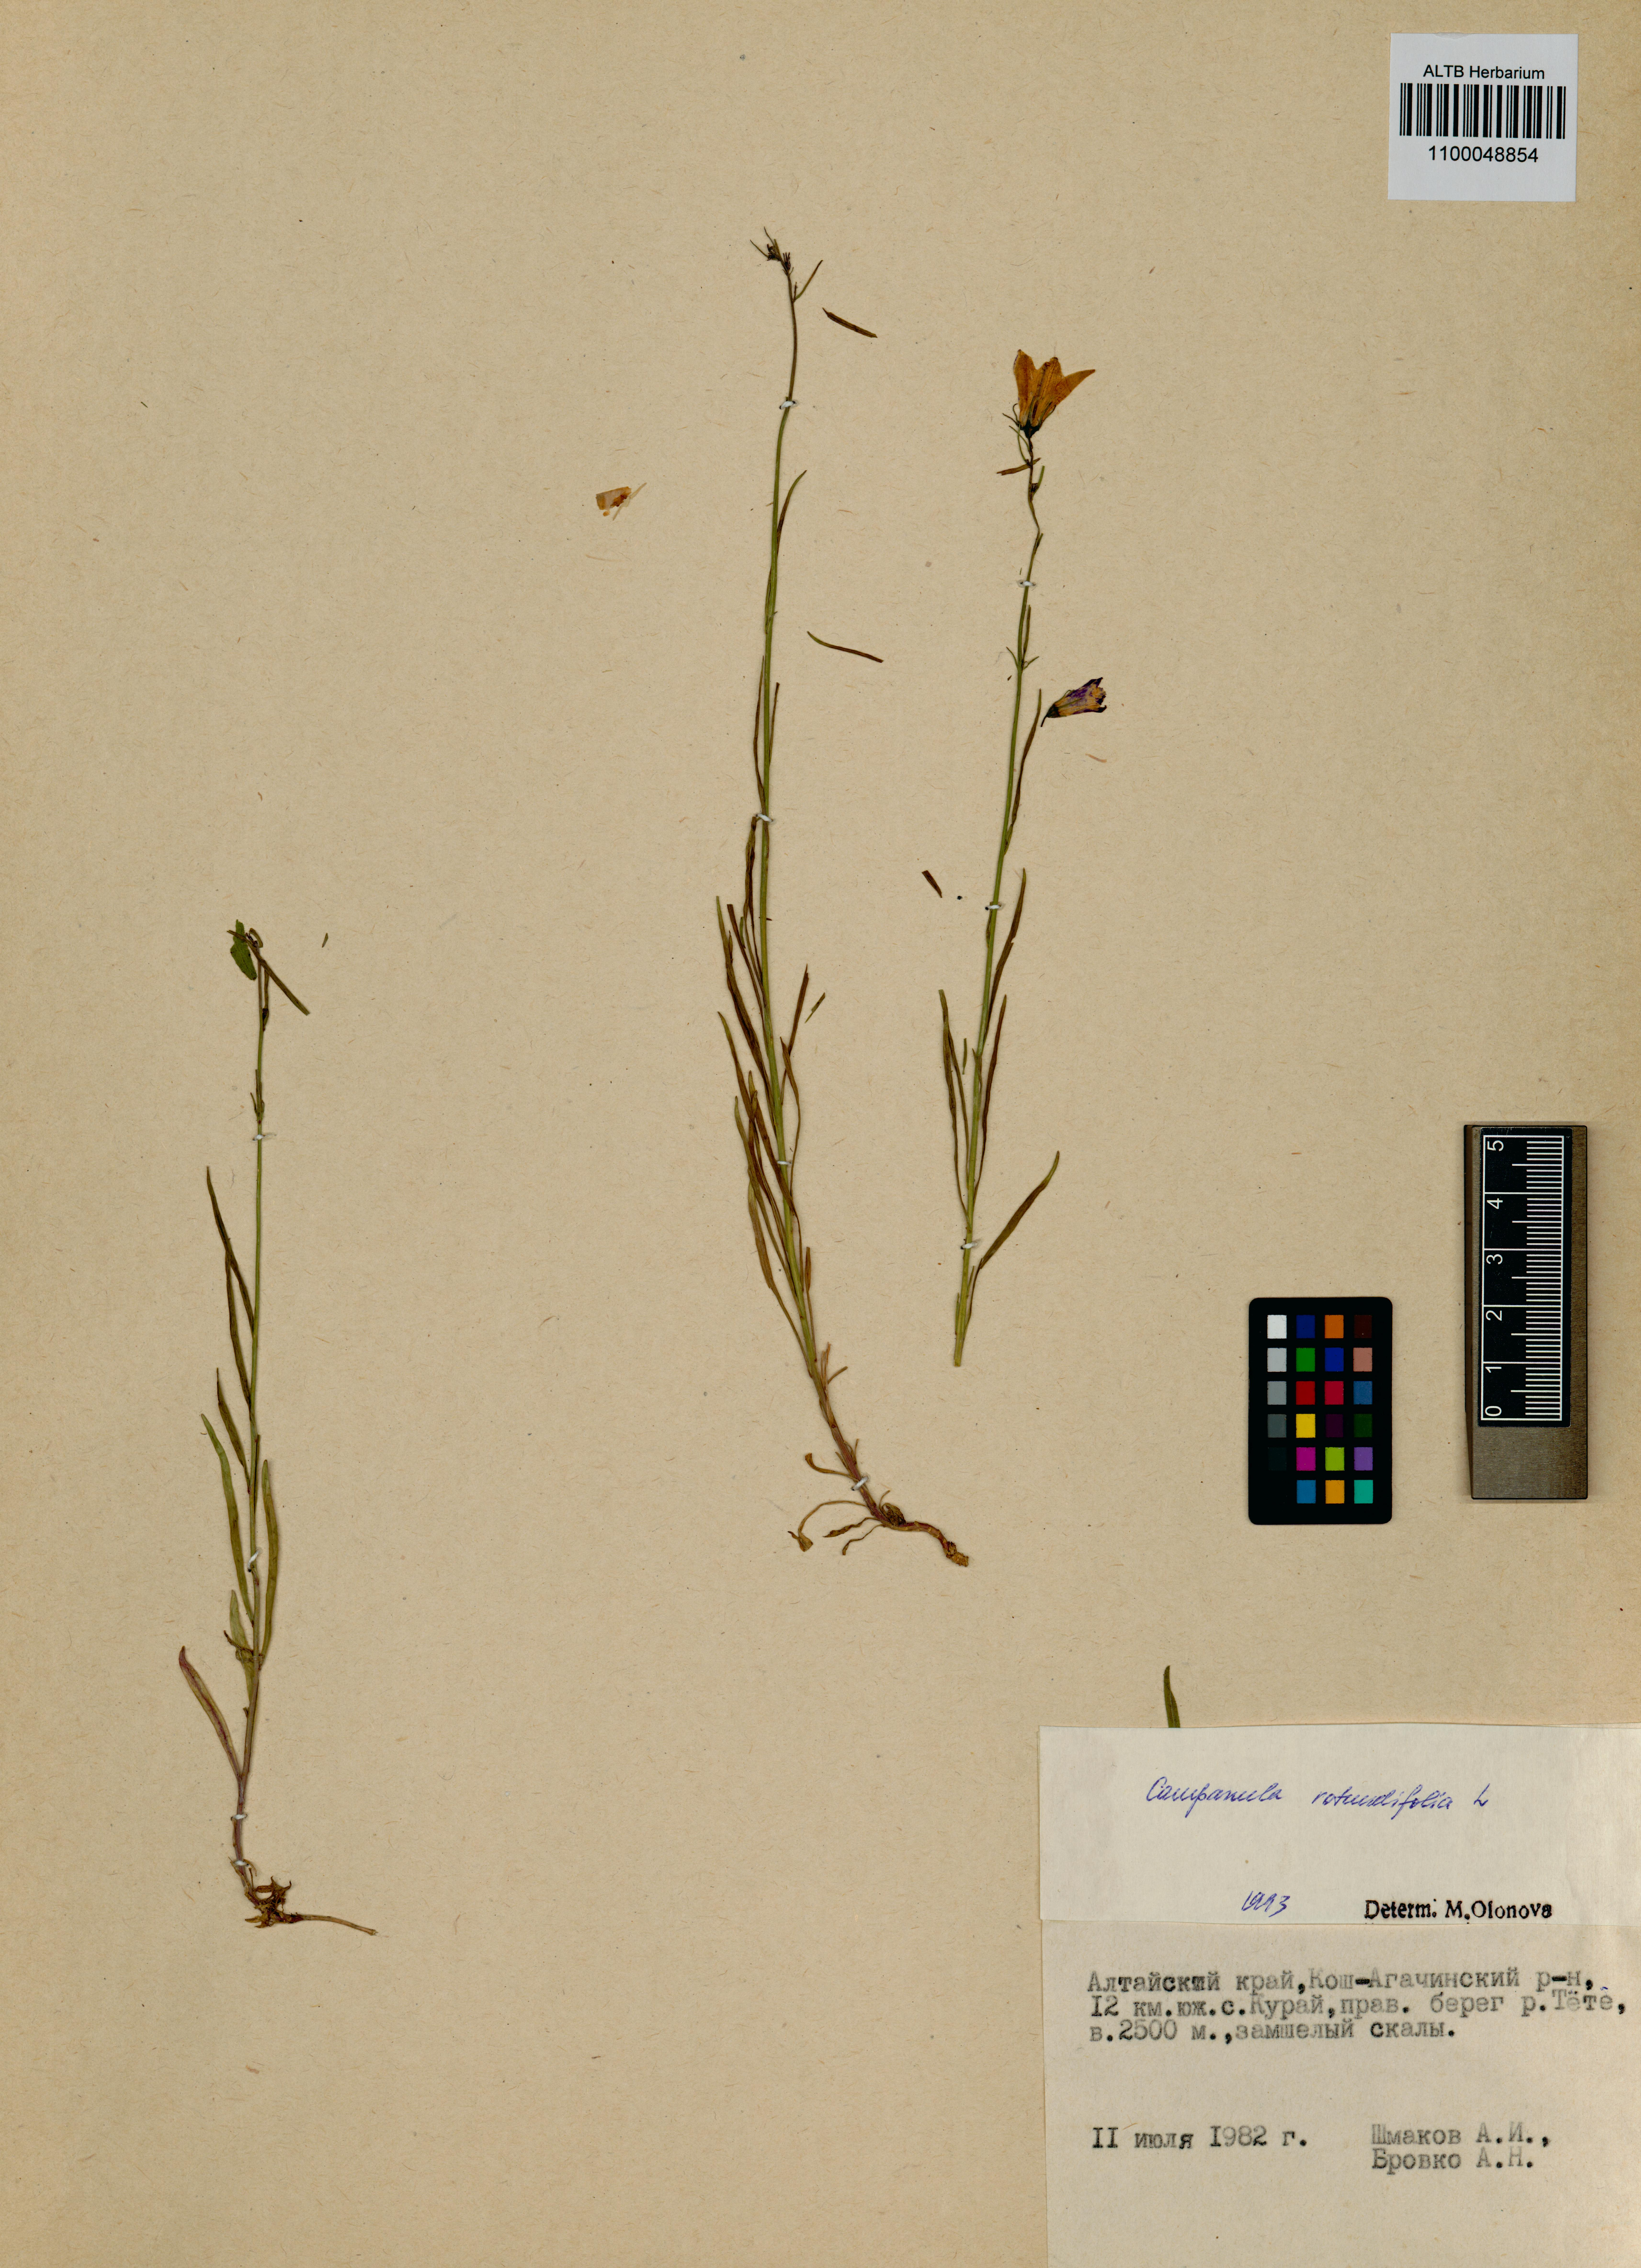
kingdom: Plantae
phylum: Tracheophyta
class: Magnoliopsida
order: Asterales
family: Campanulaceae
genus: Campanula
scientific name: Campanula rotundifolia
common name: Harebell
